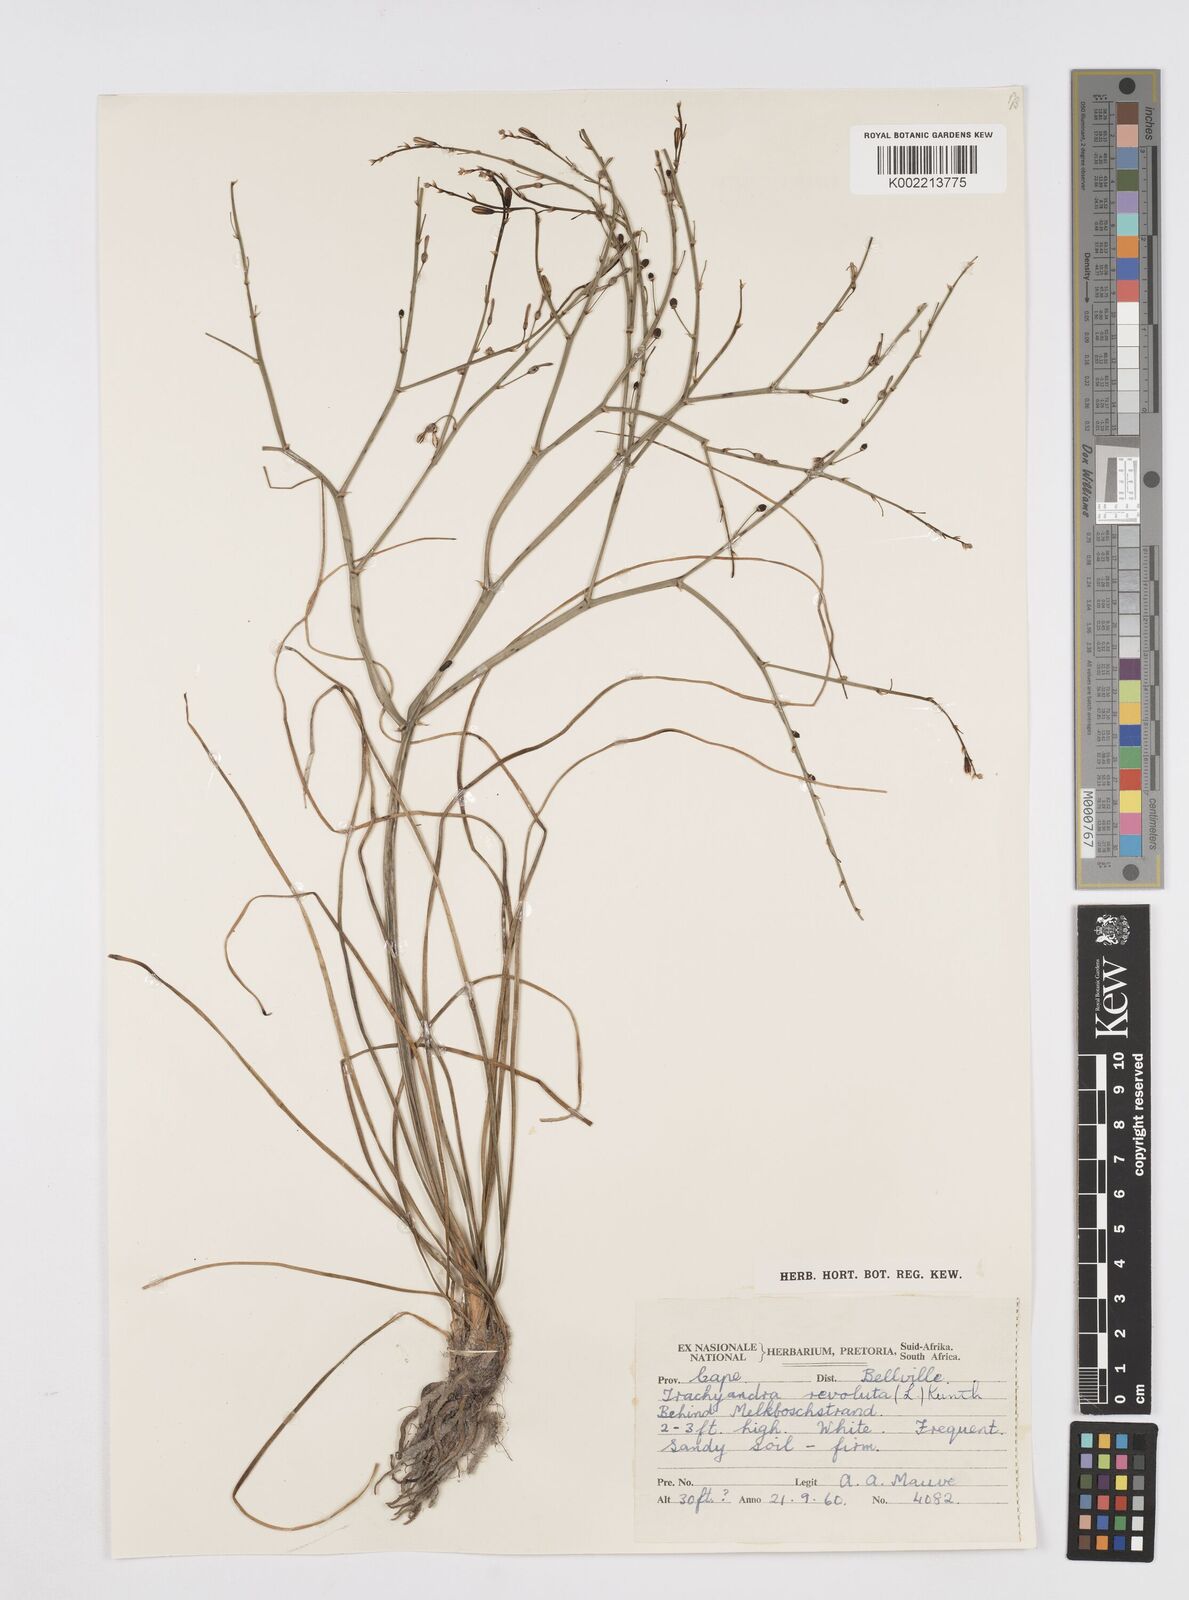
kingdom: Plantae
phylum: Tracheophyta
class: Liliopsida
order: Asparagales
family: Asphodelaceae
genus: Trachyandra
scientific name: Trachyandra revoluta
